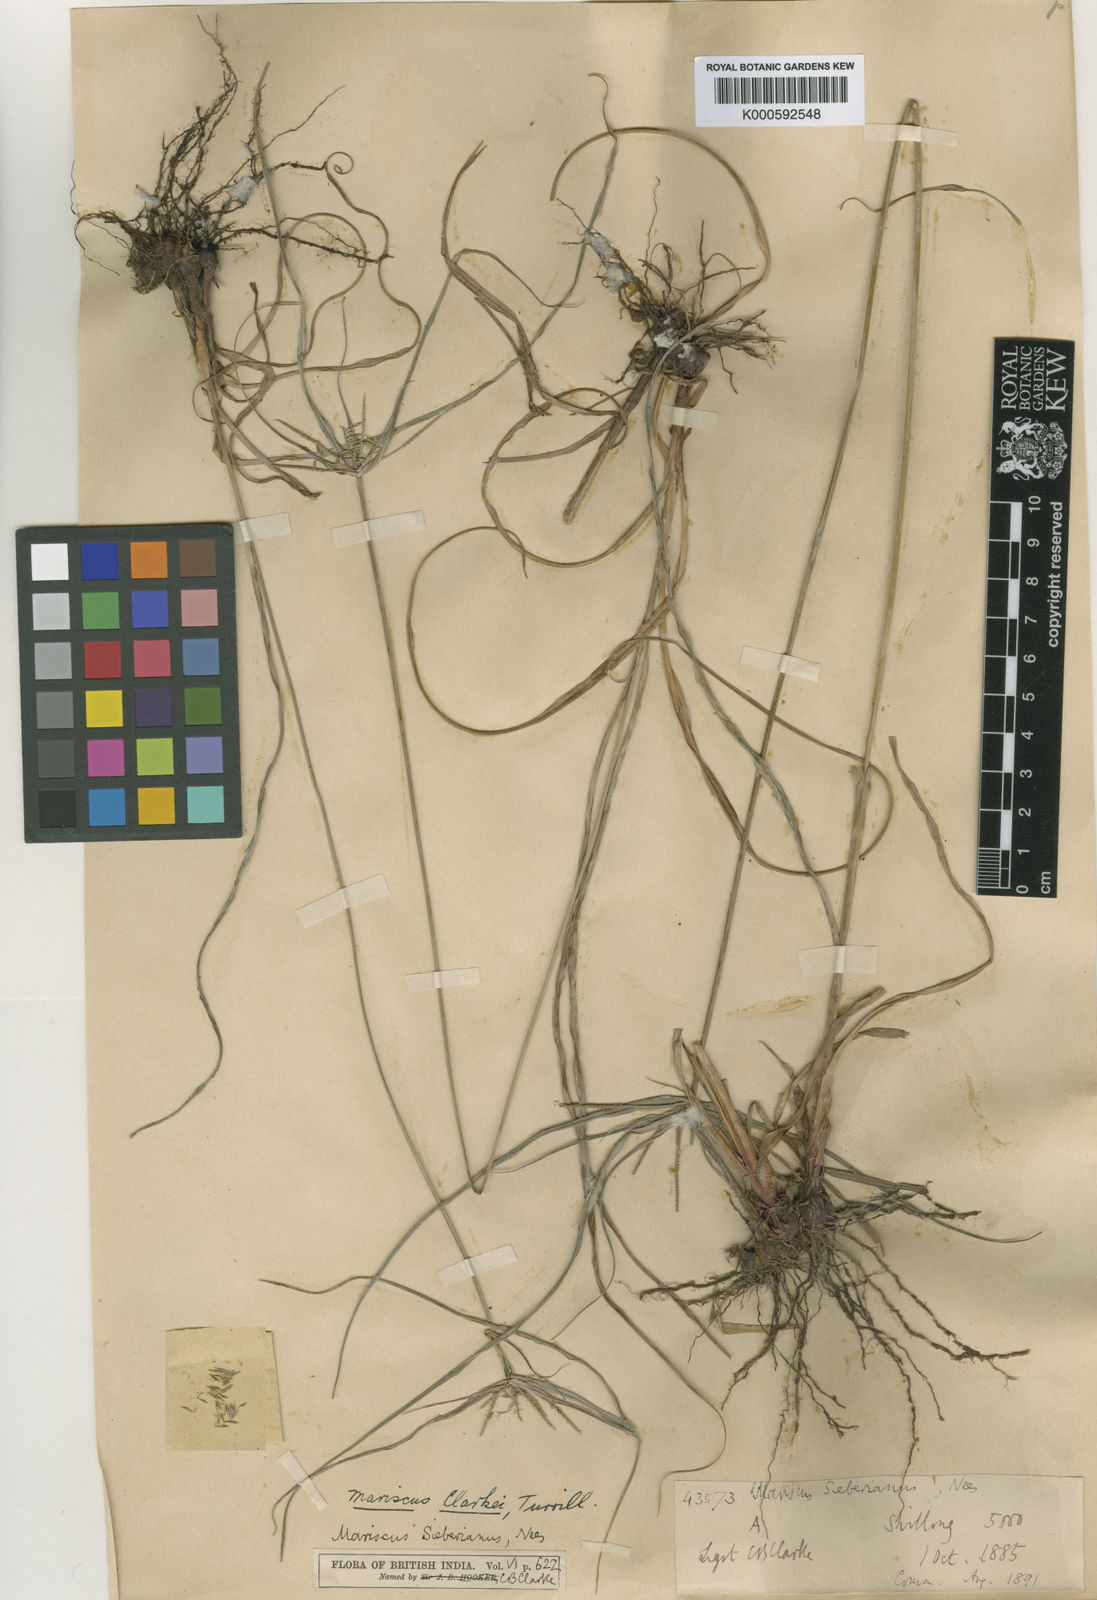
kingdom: Plantae
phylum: Tracheophyta
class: Liliopsida
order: Poales
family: Cyperaceae
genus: Cyperus
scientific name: Cyperus cyperoides
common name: Pacific island flat sedge
